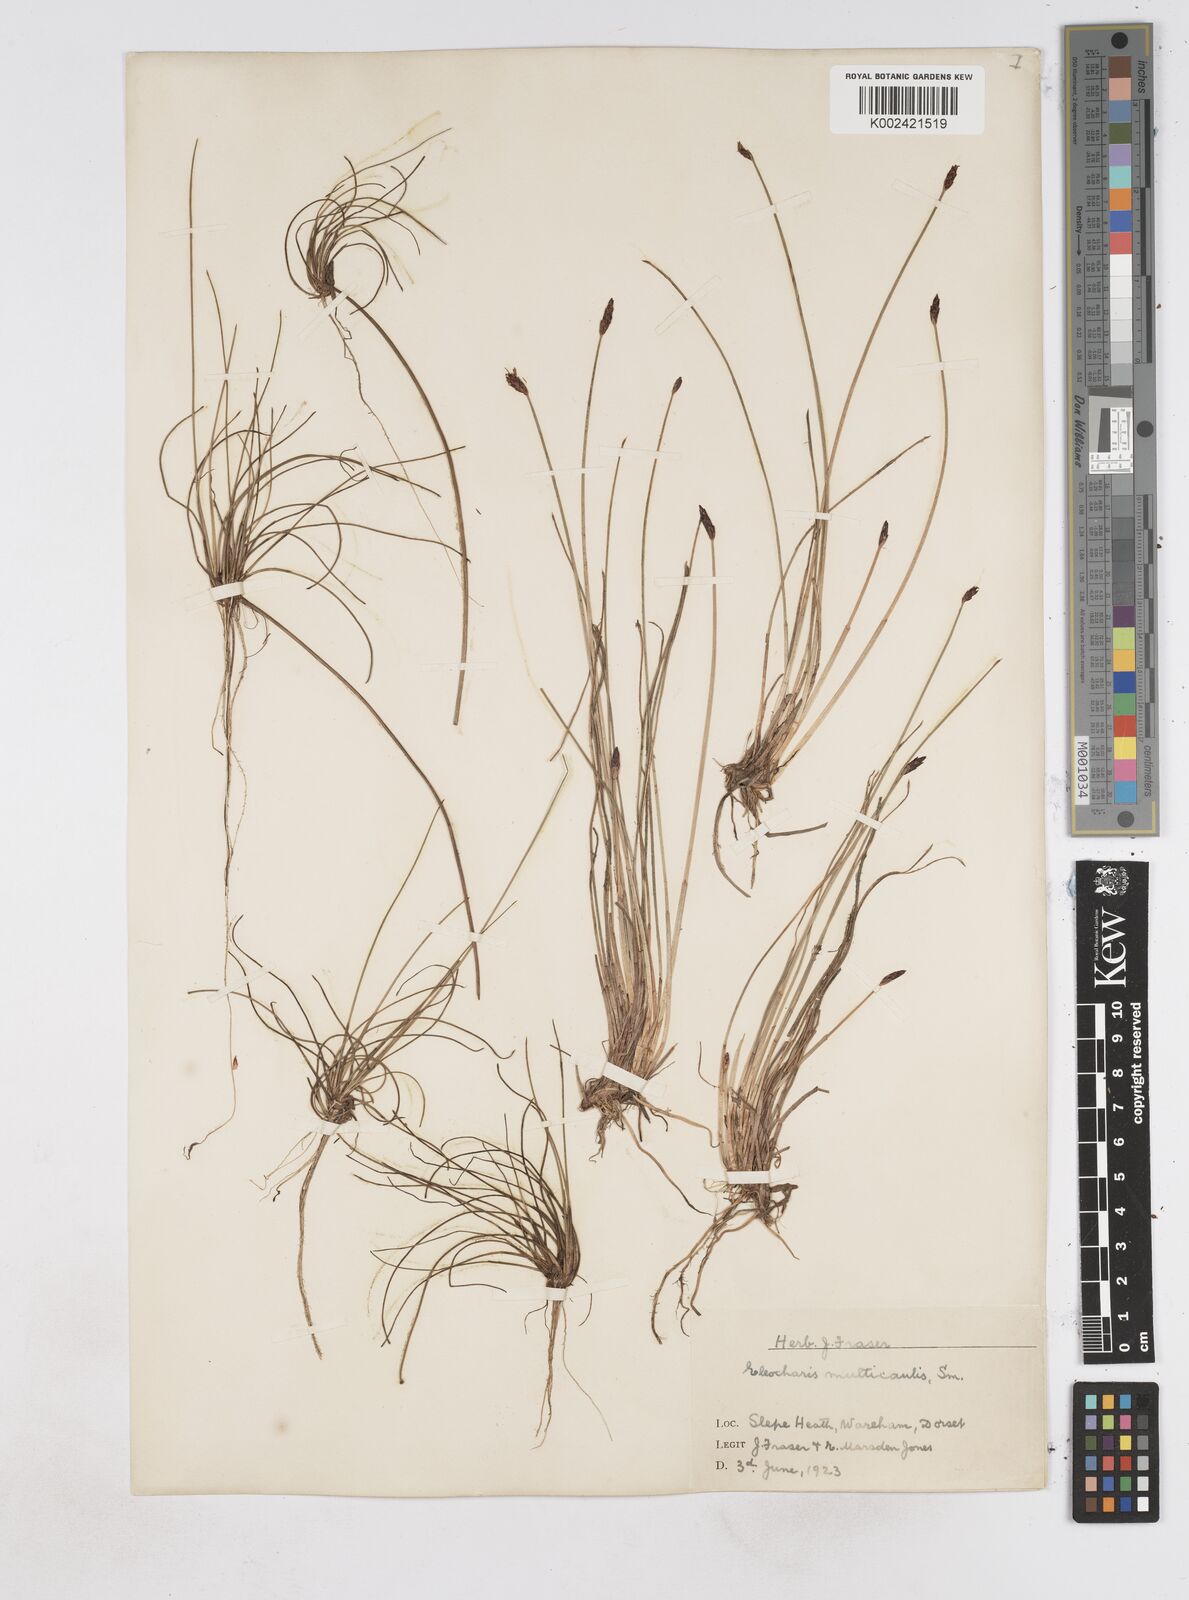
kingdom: Plantae
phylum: Tracheophyta
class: Liliopsida
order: Poales
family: Cyperaceae
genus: Eleocharis
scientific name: Eleocharis multicaulis
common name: Many-stalked spike-rush
